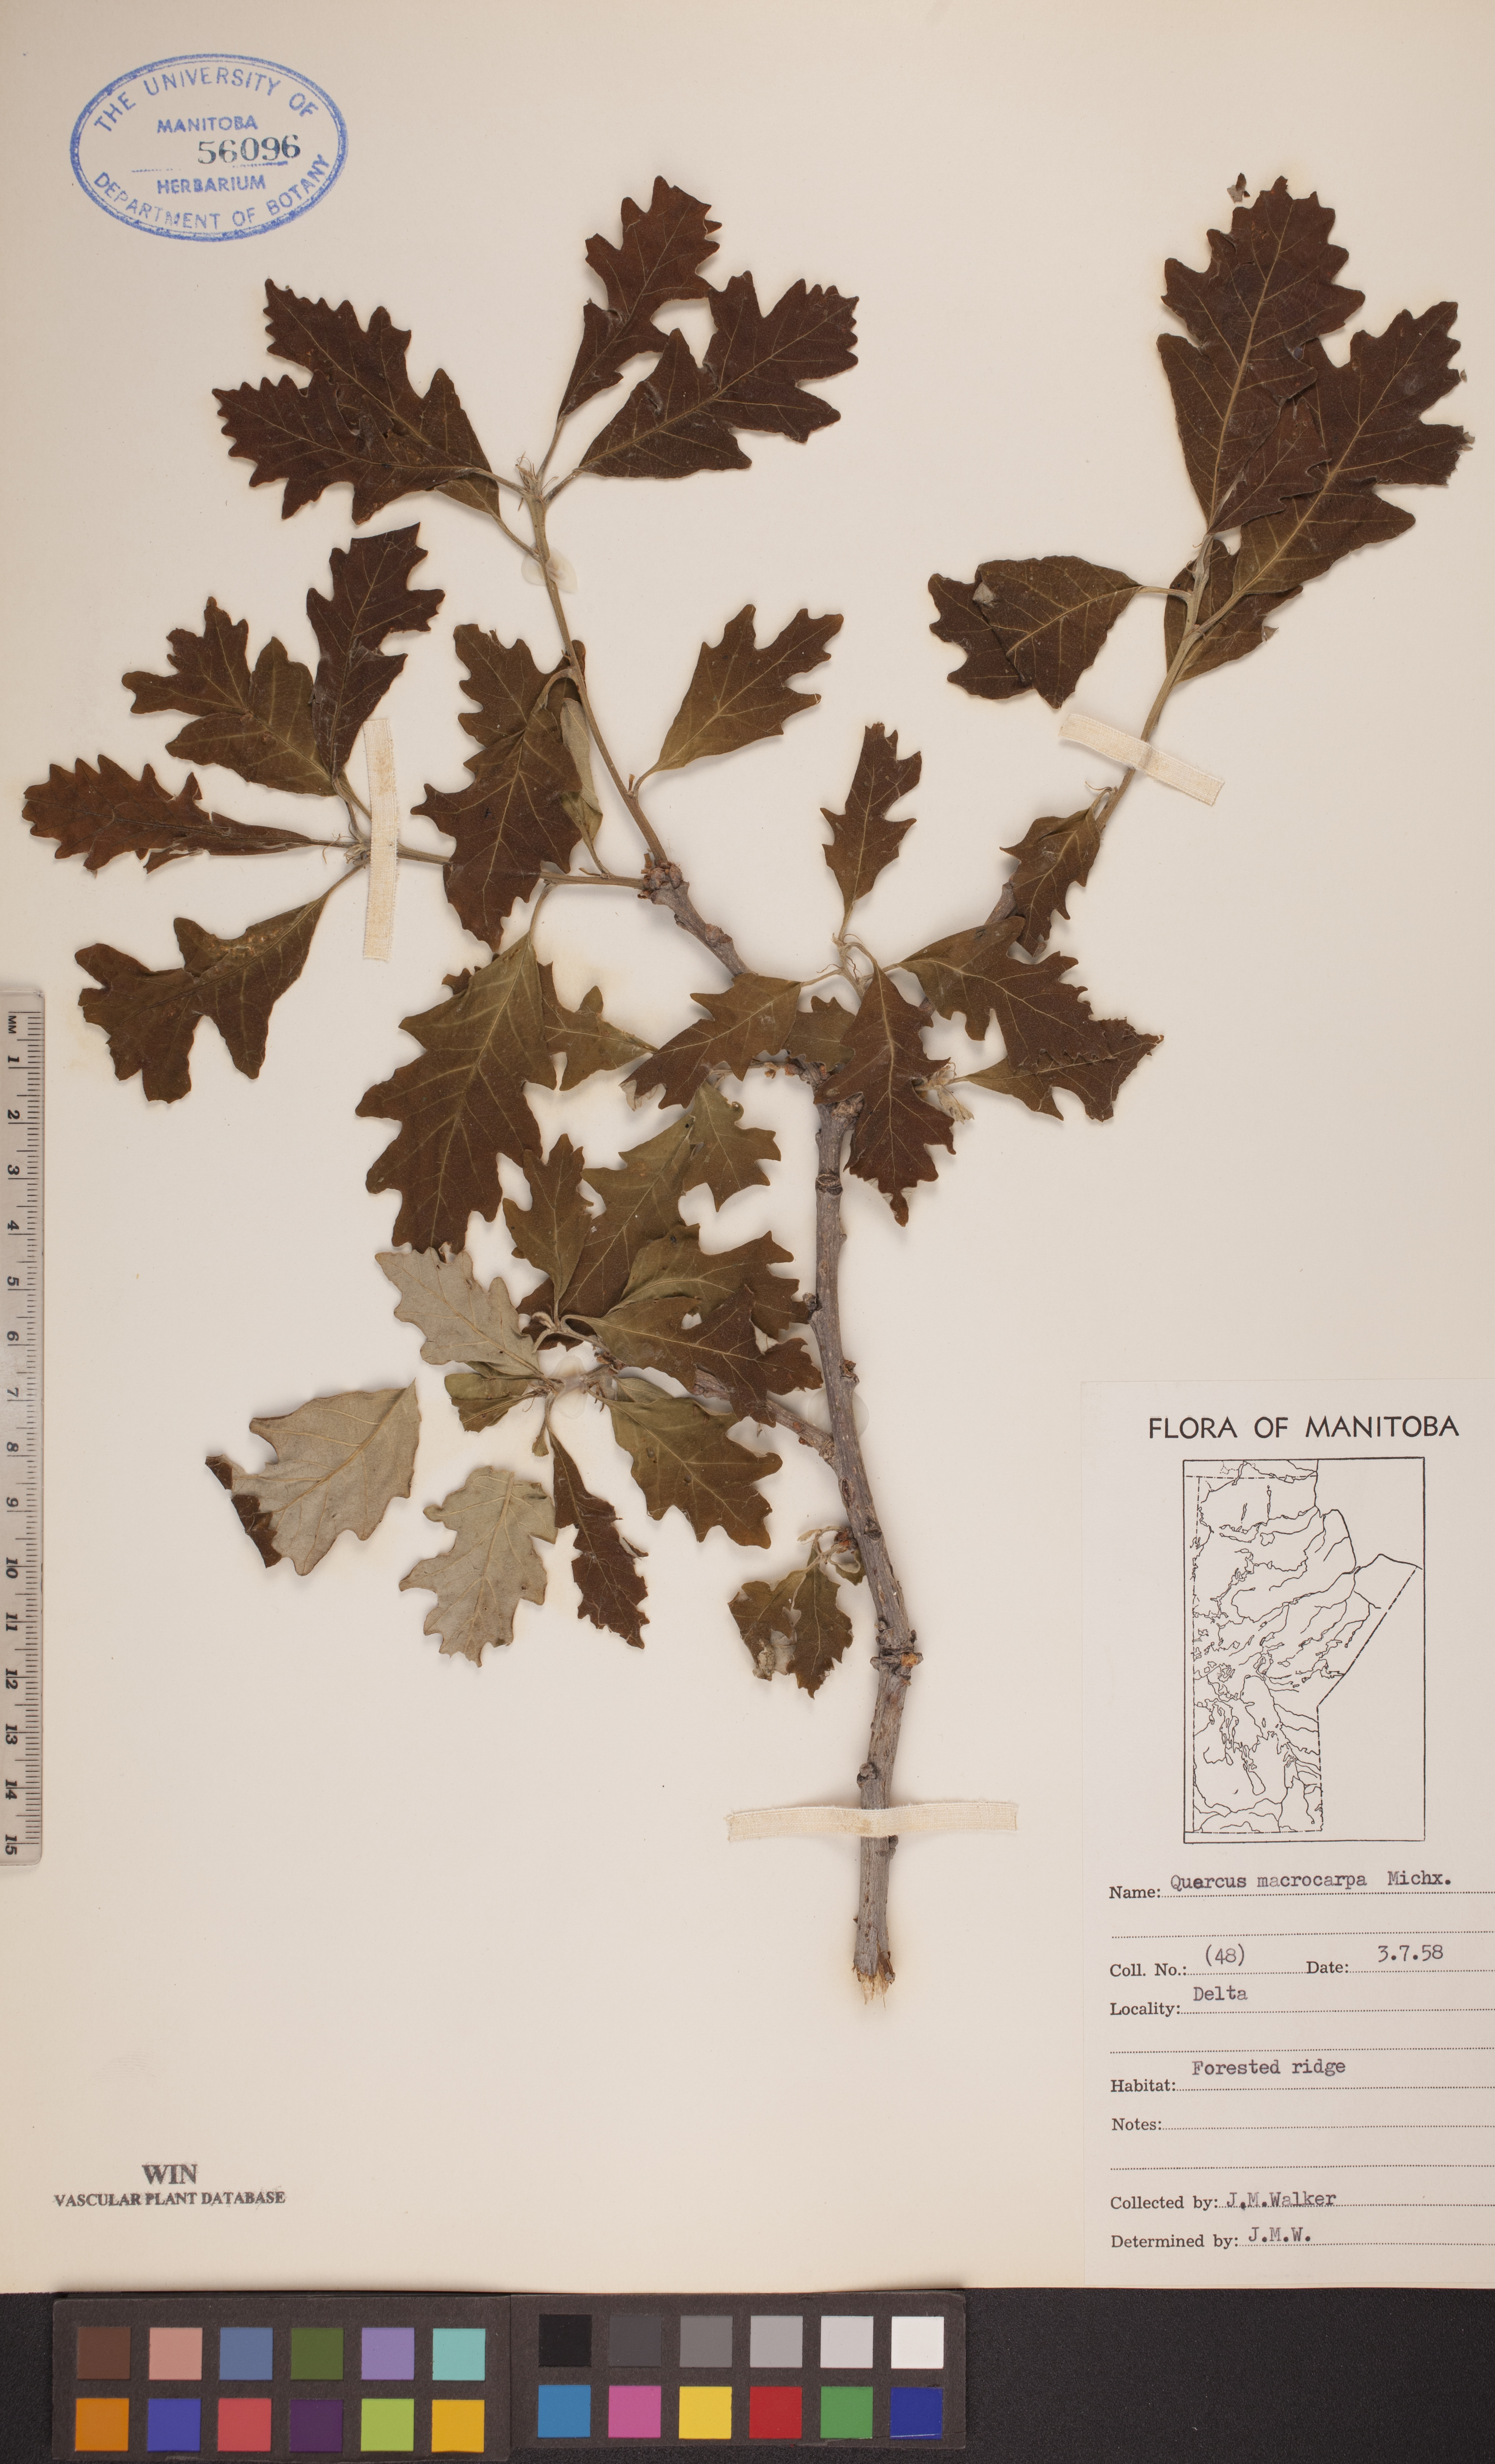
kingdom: Plantae
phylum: Tracheophyta
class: Magnoliopsida
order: Fagales
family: Fagaceae
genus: Quercus
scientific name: Quercus macrocarpa
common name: Bur oak
